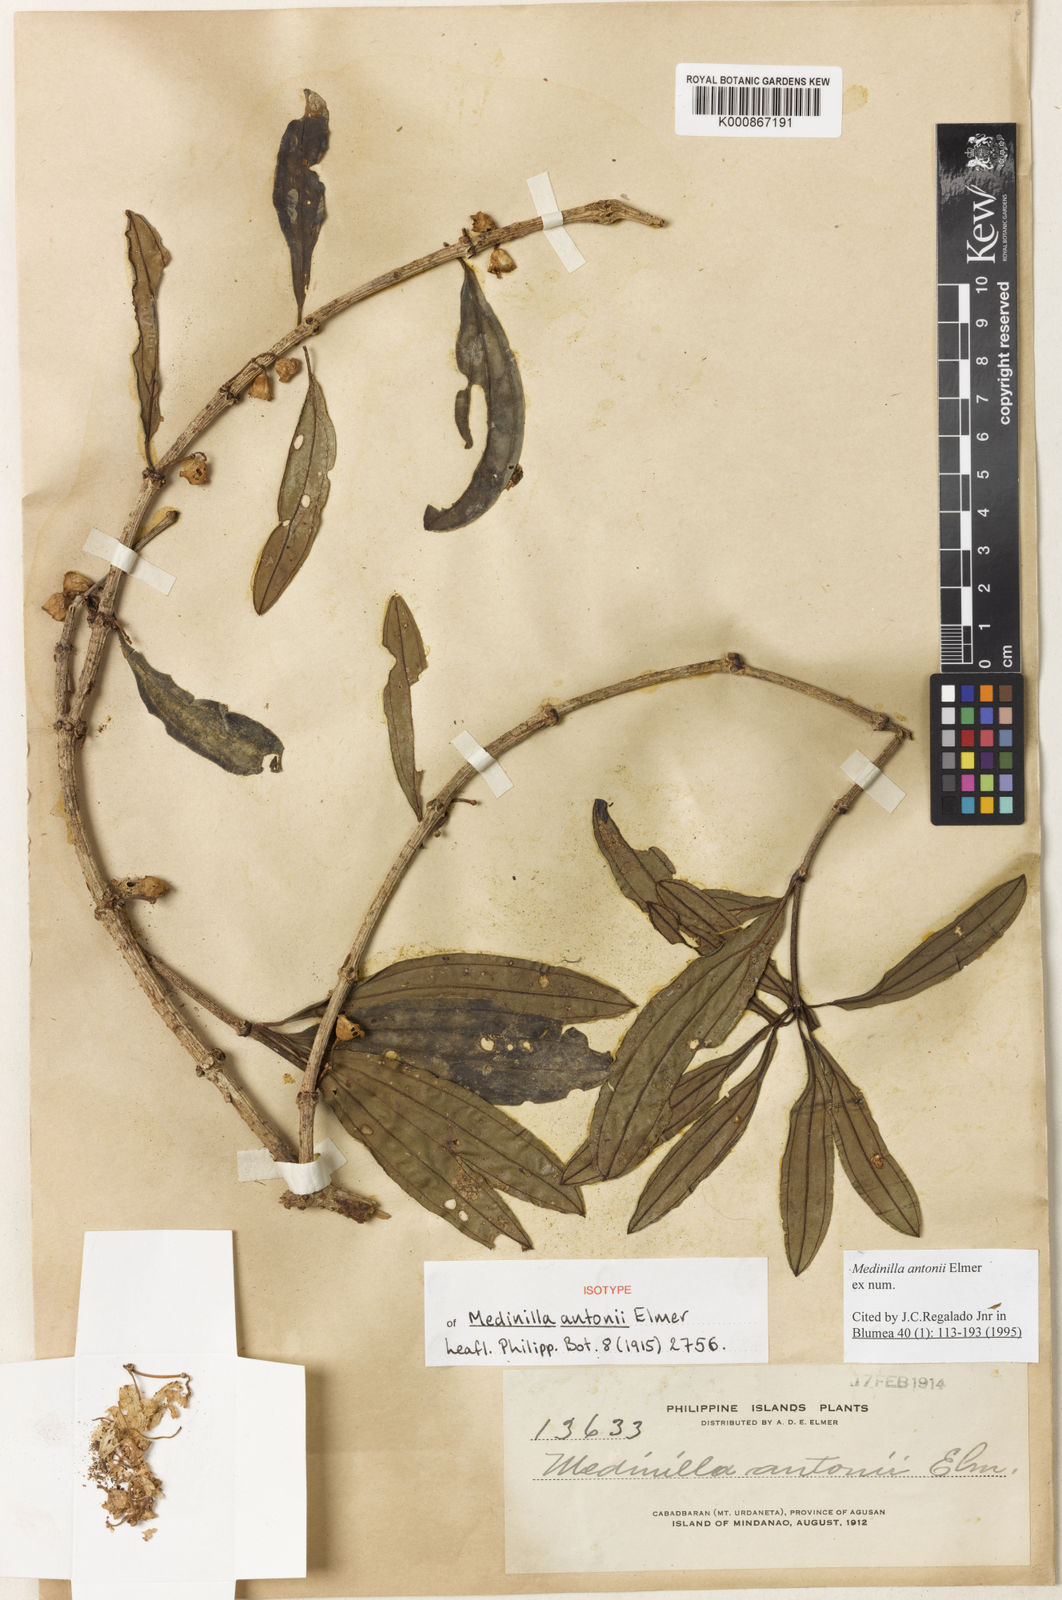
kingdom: Plantae
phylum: Tracheophyta
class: Magnoliopsida
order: Myrtales
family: Melastomataceae
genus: Medinilla
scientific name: Medinilla antonii
